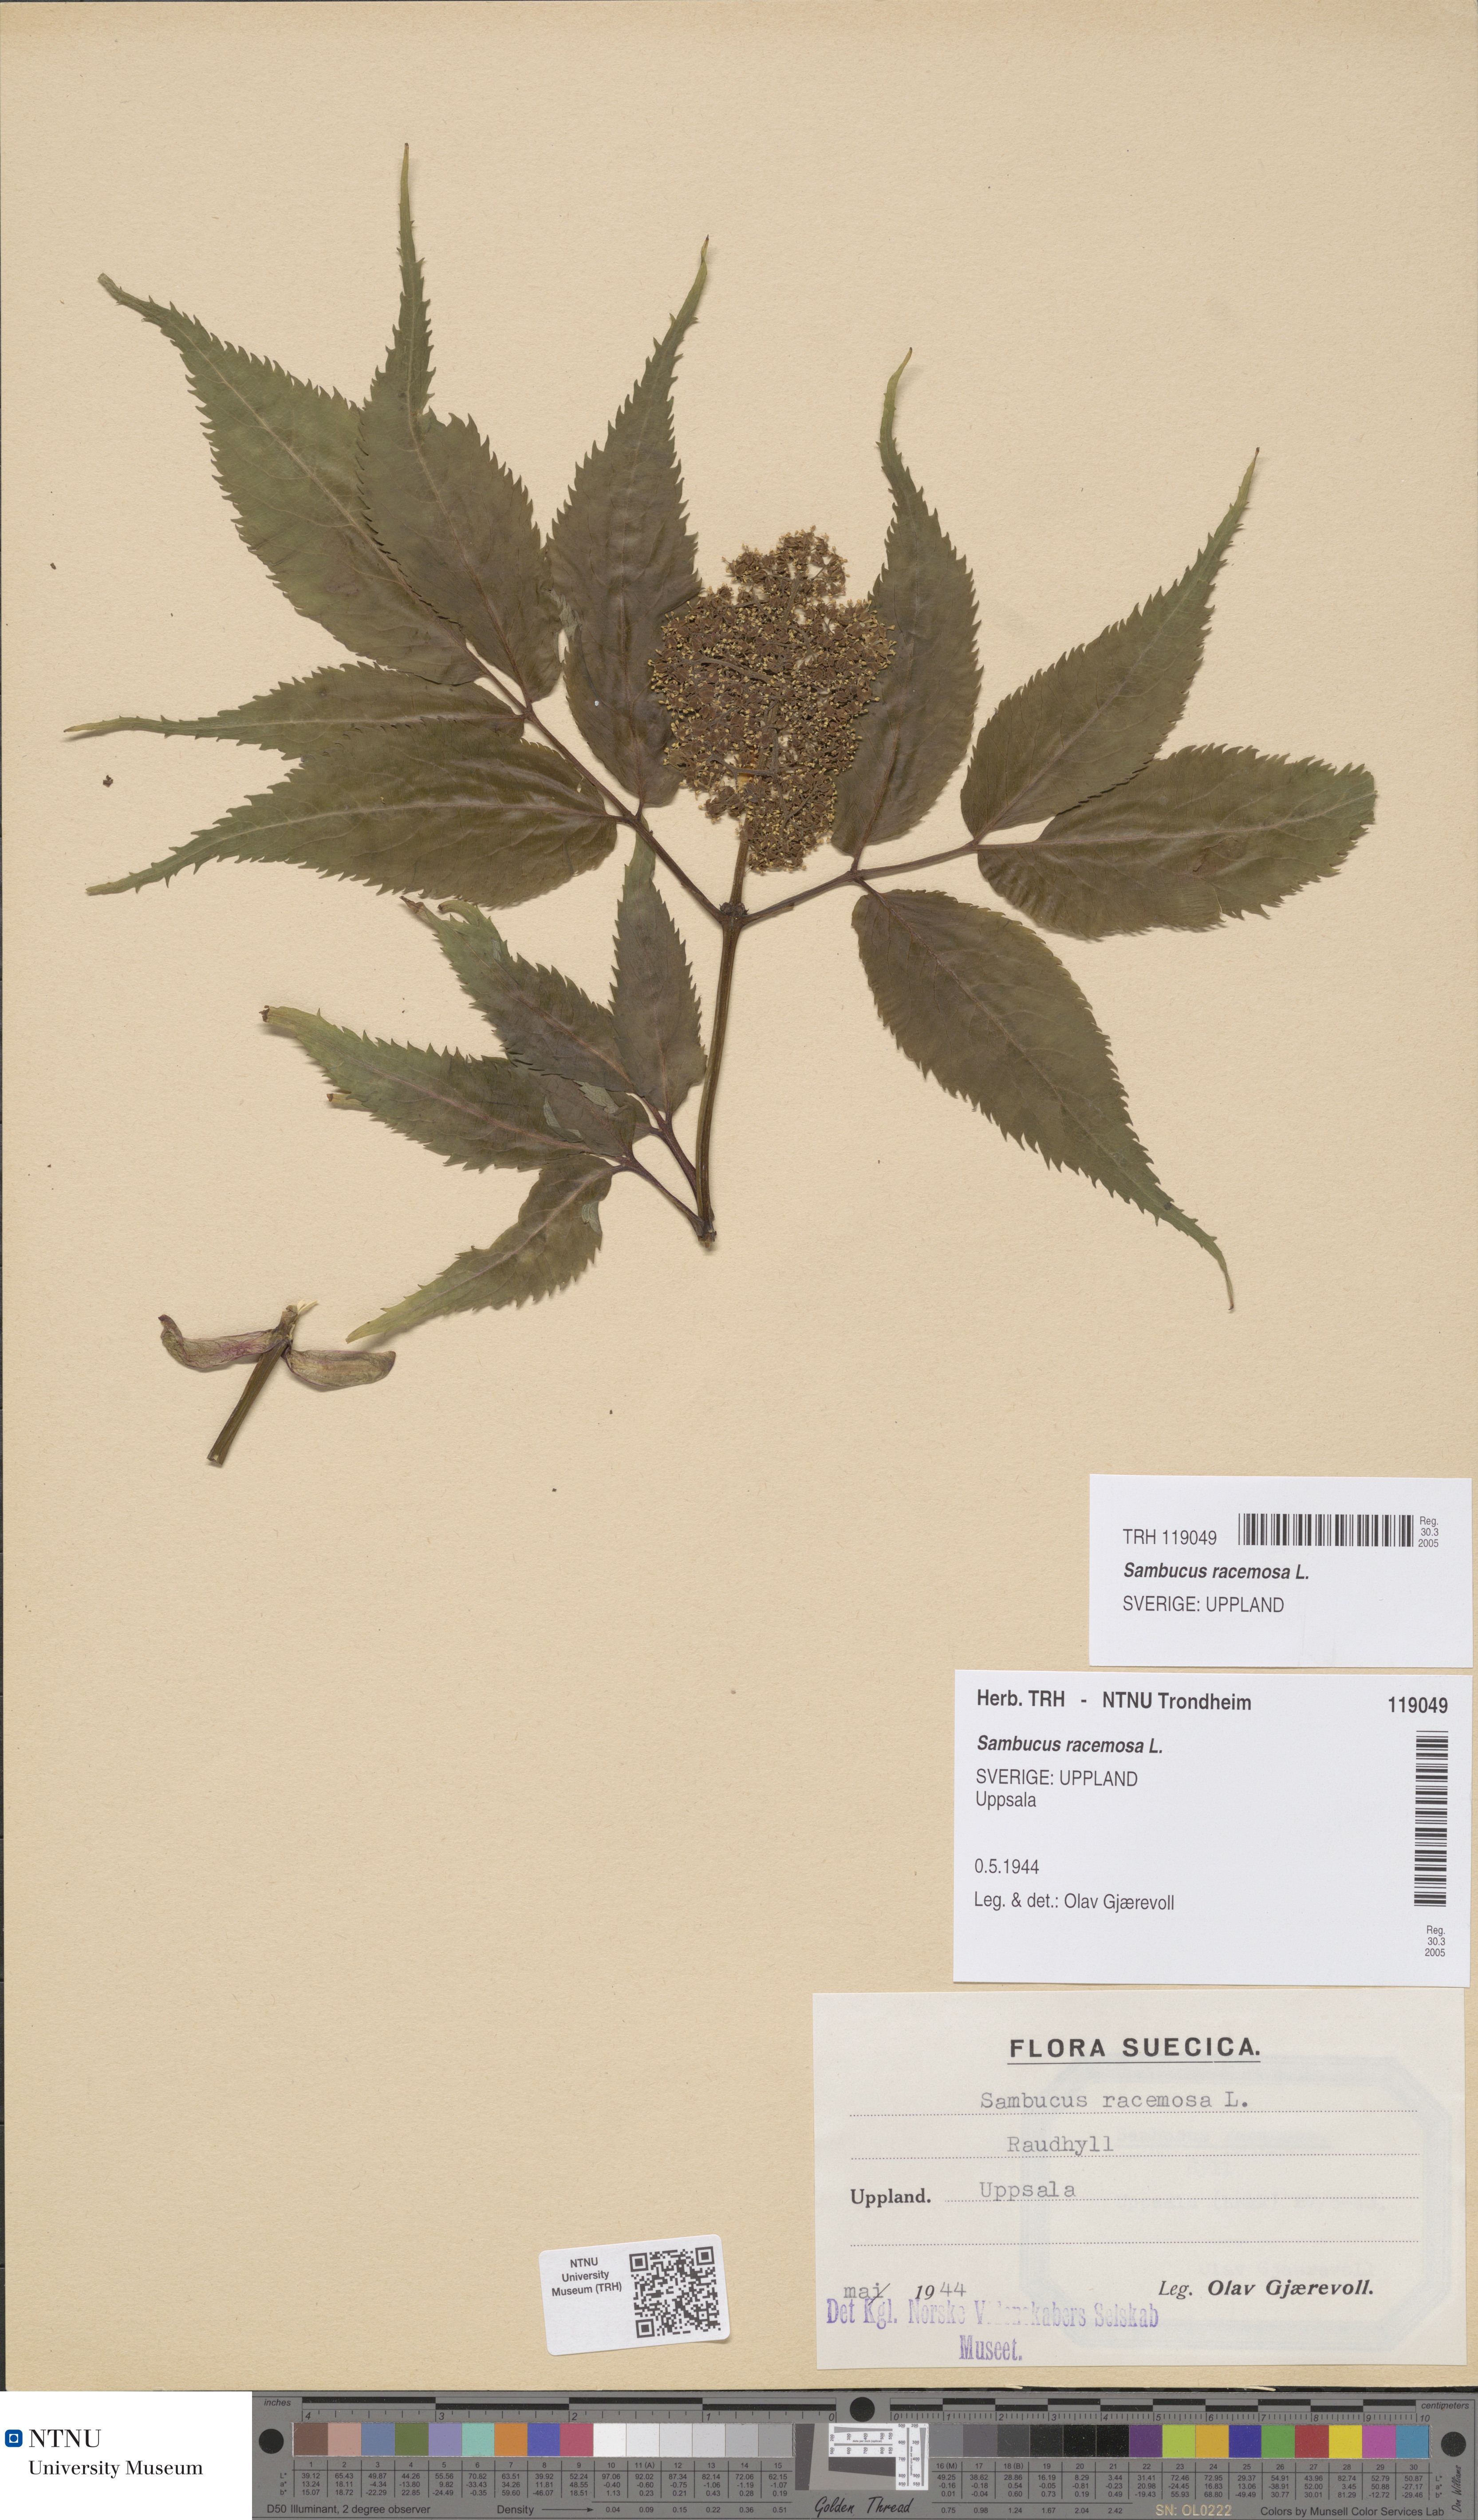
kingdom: Plantae
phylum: Tracheophyta
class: Magnoliopsida
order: Dipsacales
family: Viburnaceae
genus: Sambucus
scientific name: Sambucus racemosa
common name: Red-berried elder
